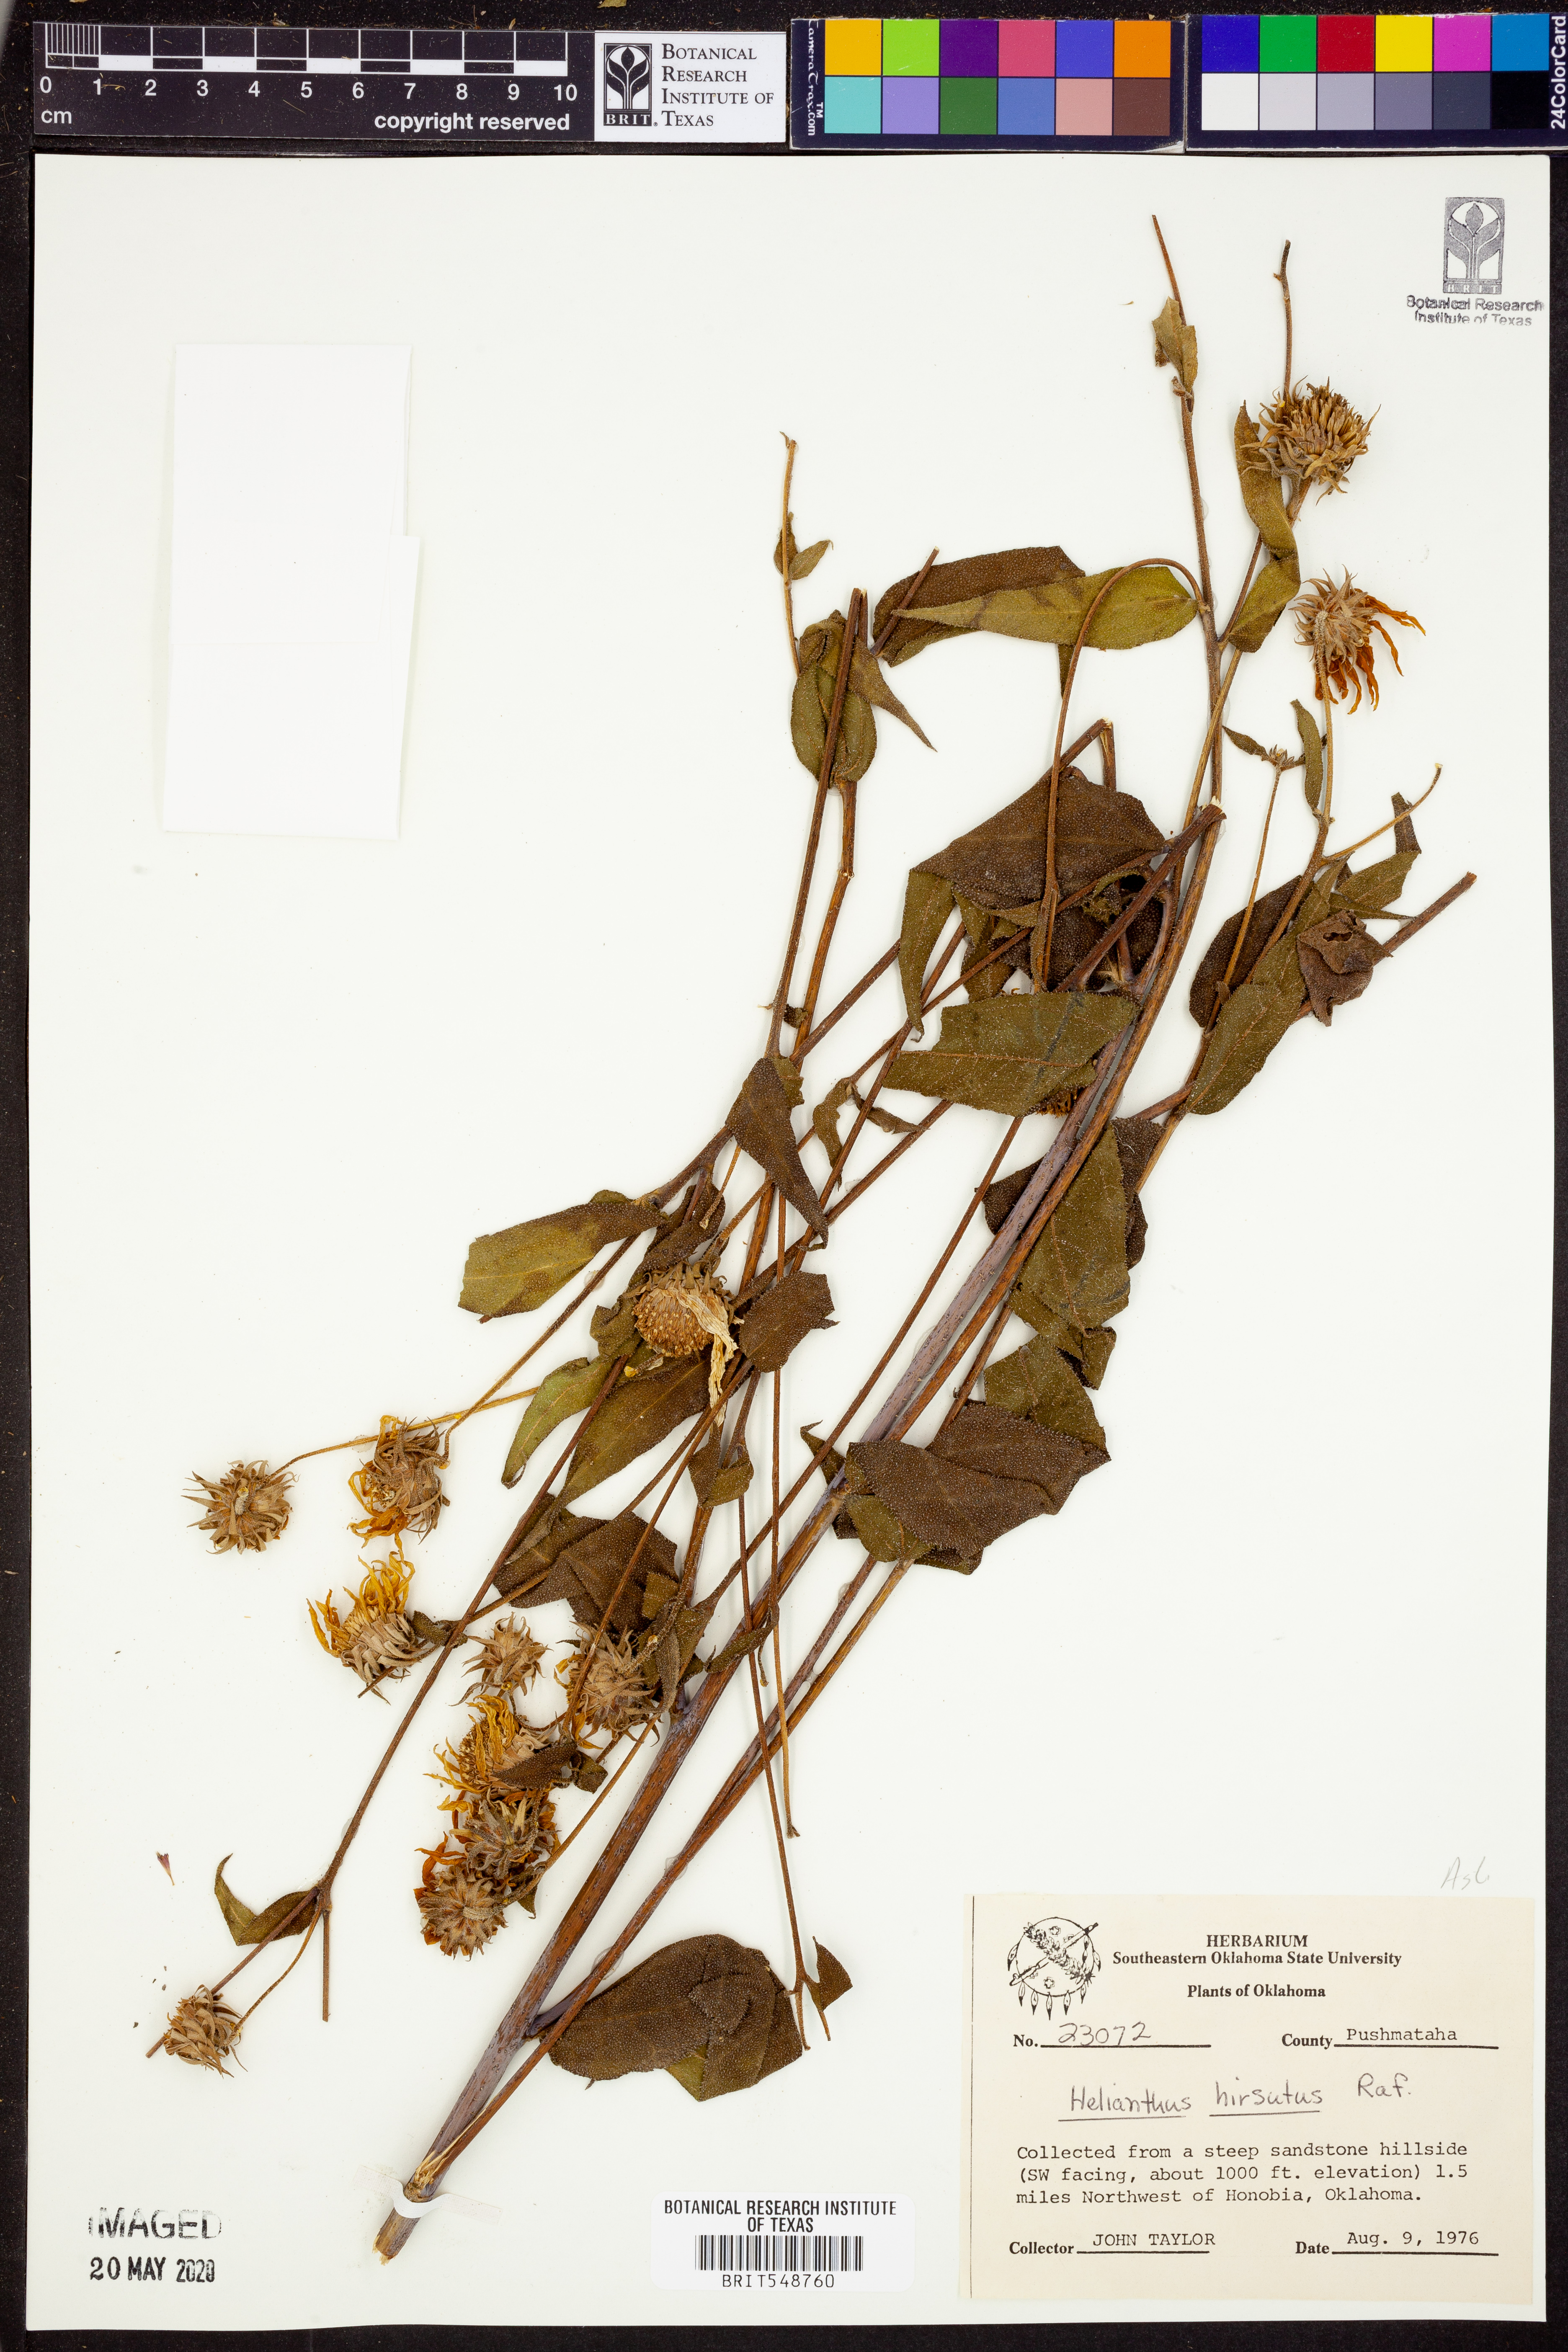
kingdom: Plantae
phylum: Tracheophyta
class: Magnoliopsida
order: Asterales
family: Asteraceae
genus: Helianthus
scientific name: Helianthus hirsutus
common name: Hairy sunflower
